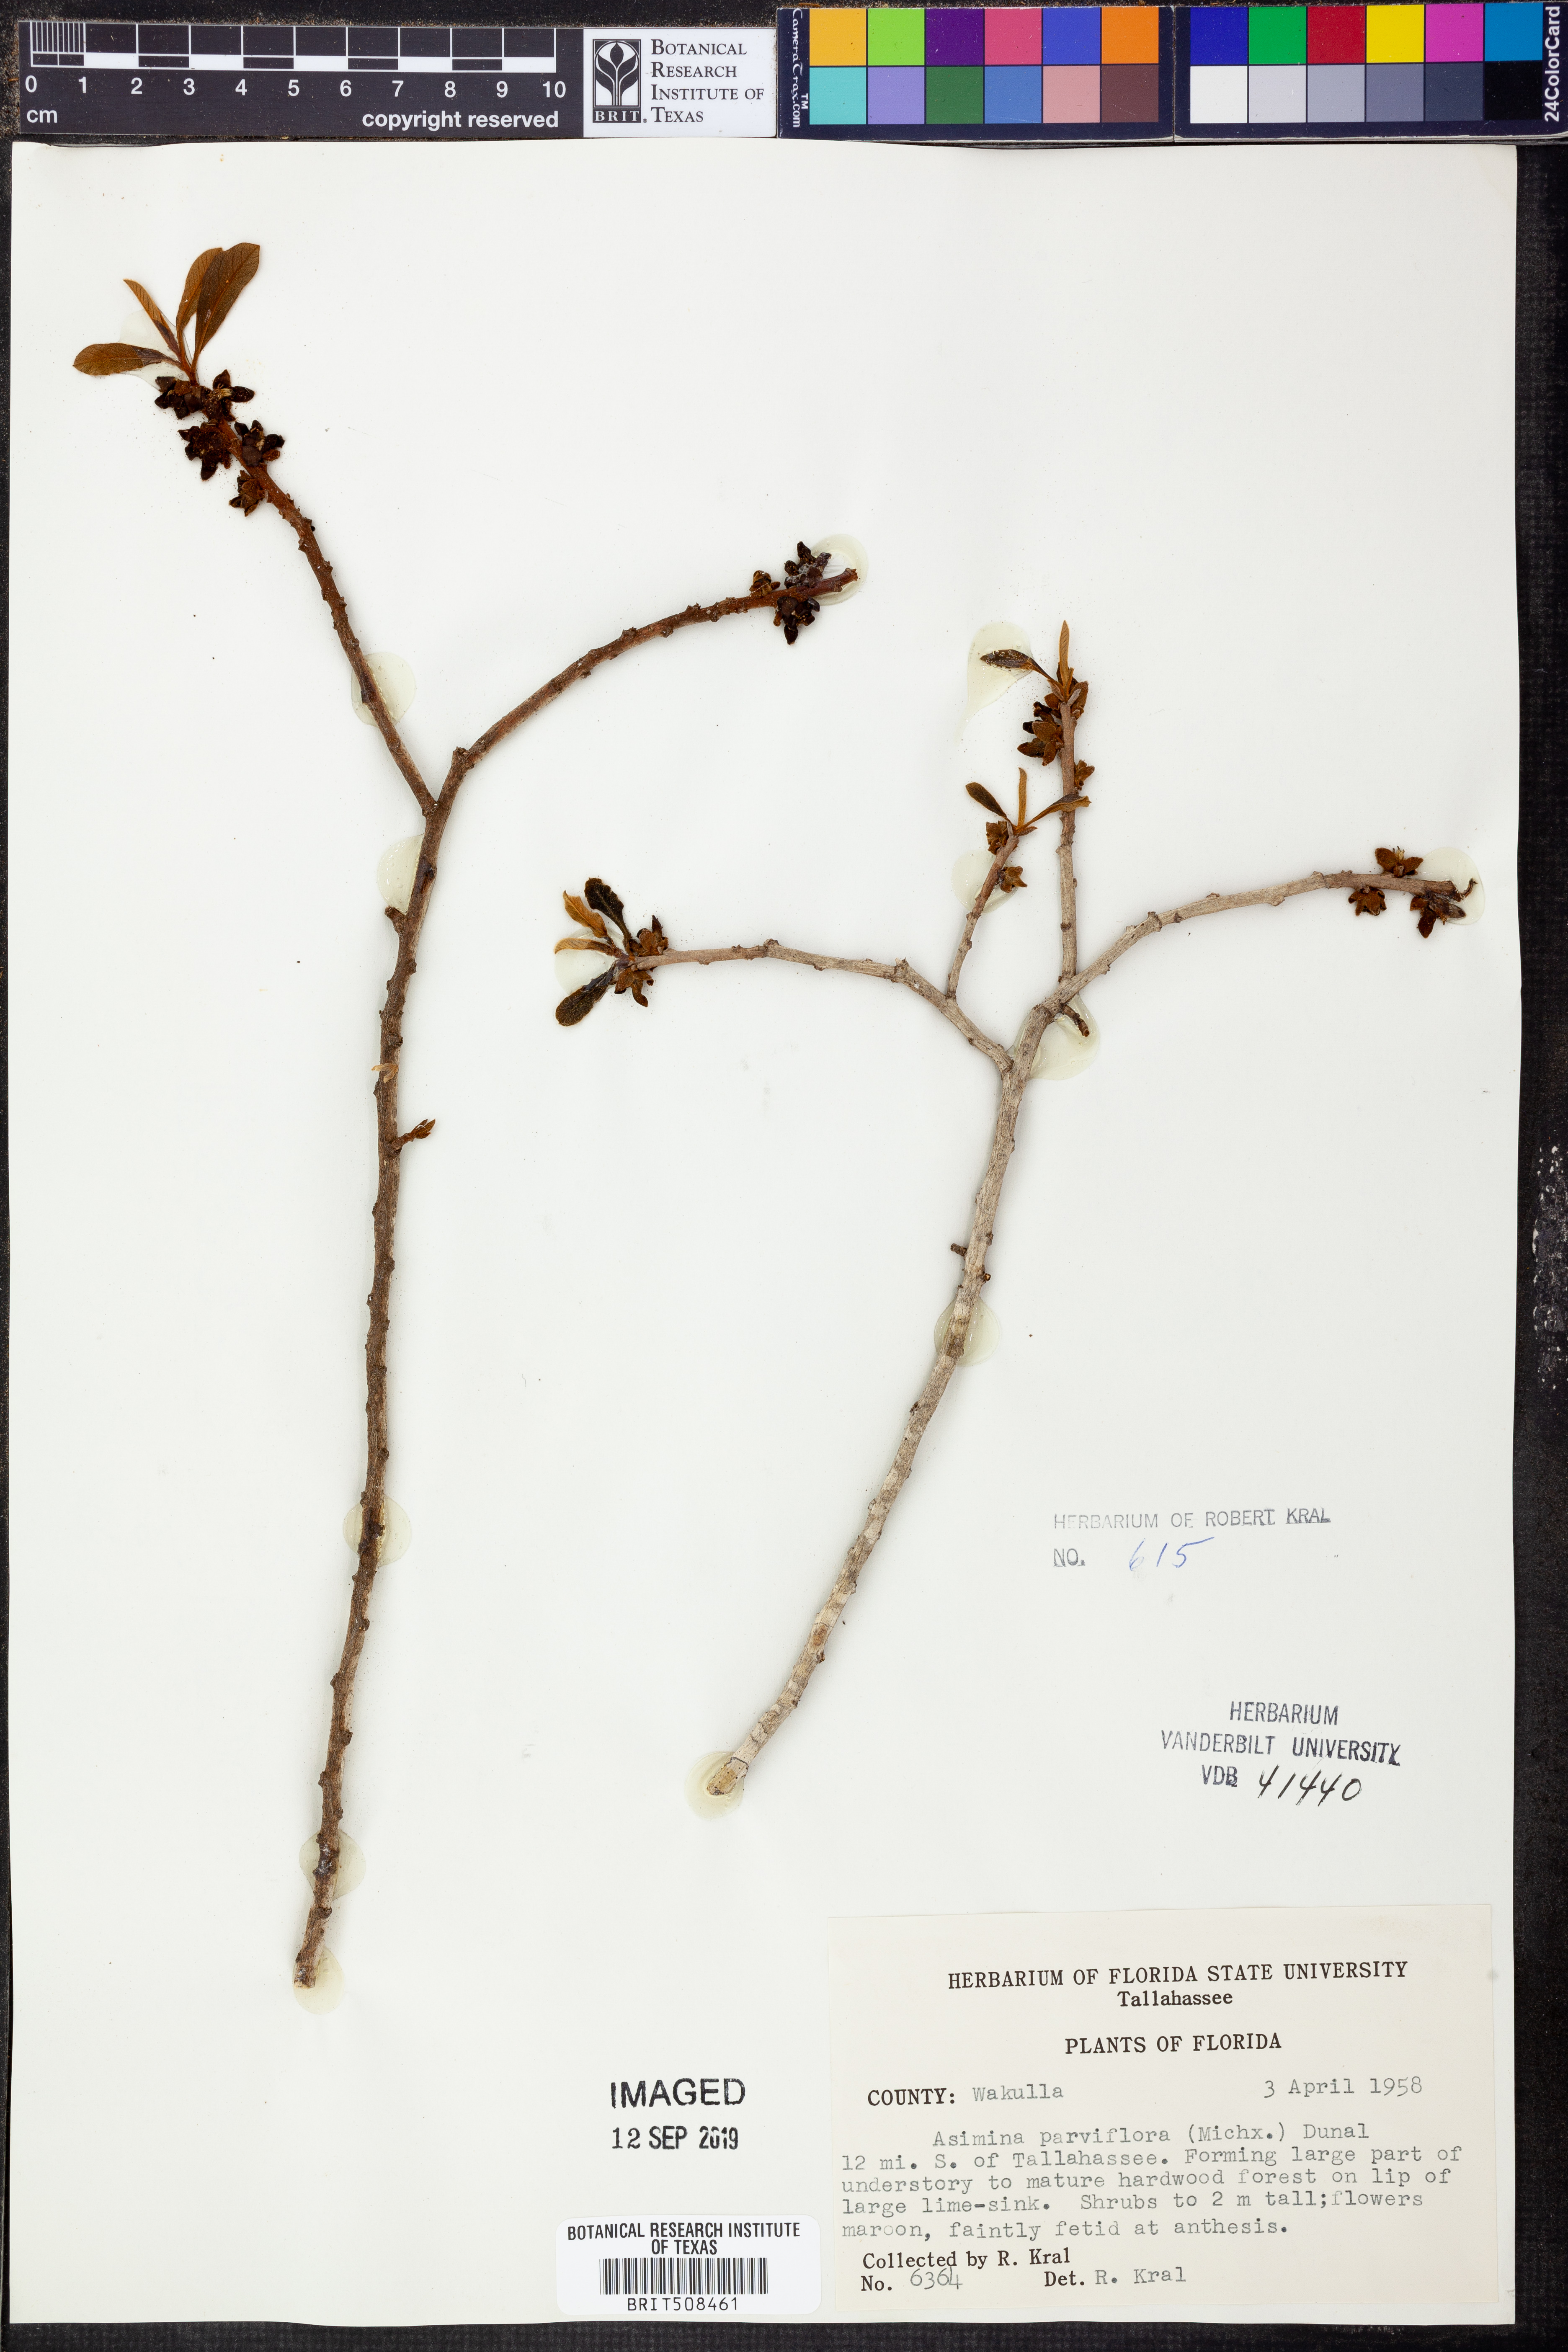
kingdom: Plantae
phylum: Tracheophyta
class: Magnoliopsida
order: Magnoliales
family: Annonaceae
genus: Asimina
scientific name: Asimina parviflora
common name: Dwarf pawpaw
